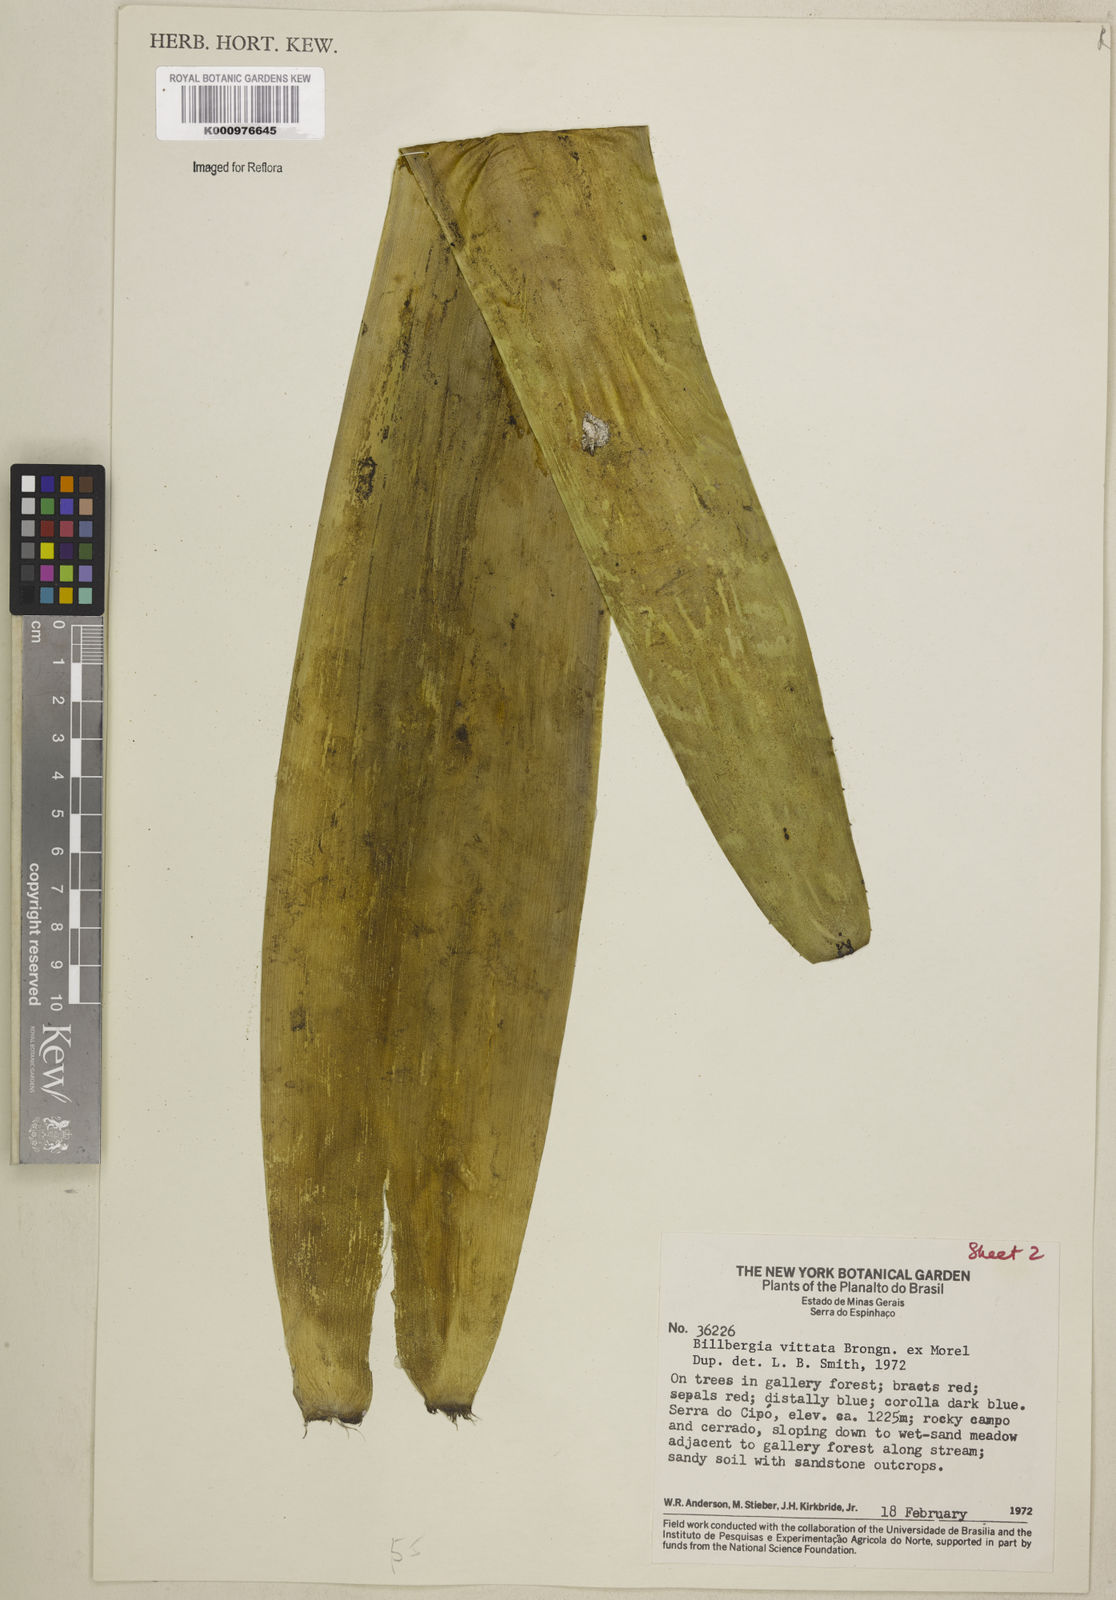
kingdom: Plantae
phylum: Tracheophyta
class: Liliopsida
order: Poales
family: Bromeliaceae
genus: Billbergia
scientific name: Billbergia vittata
